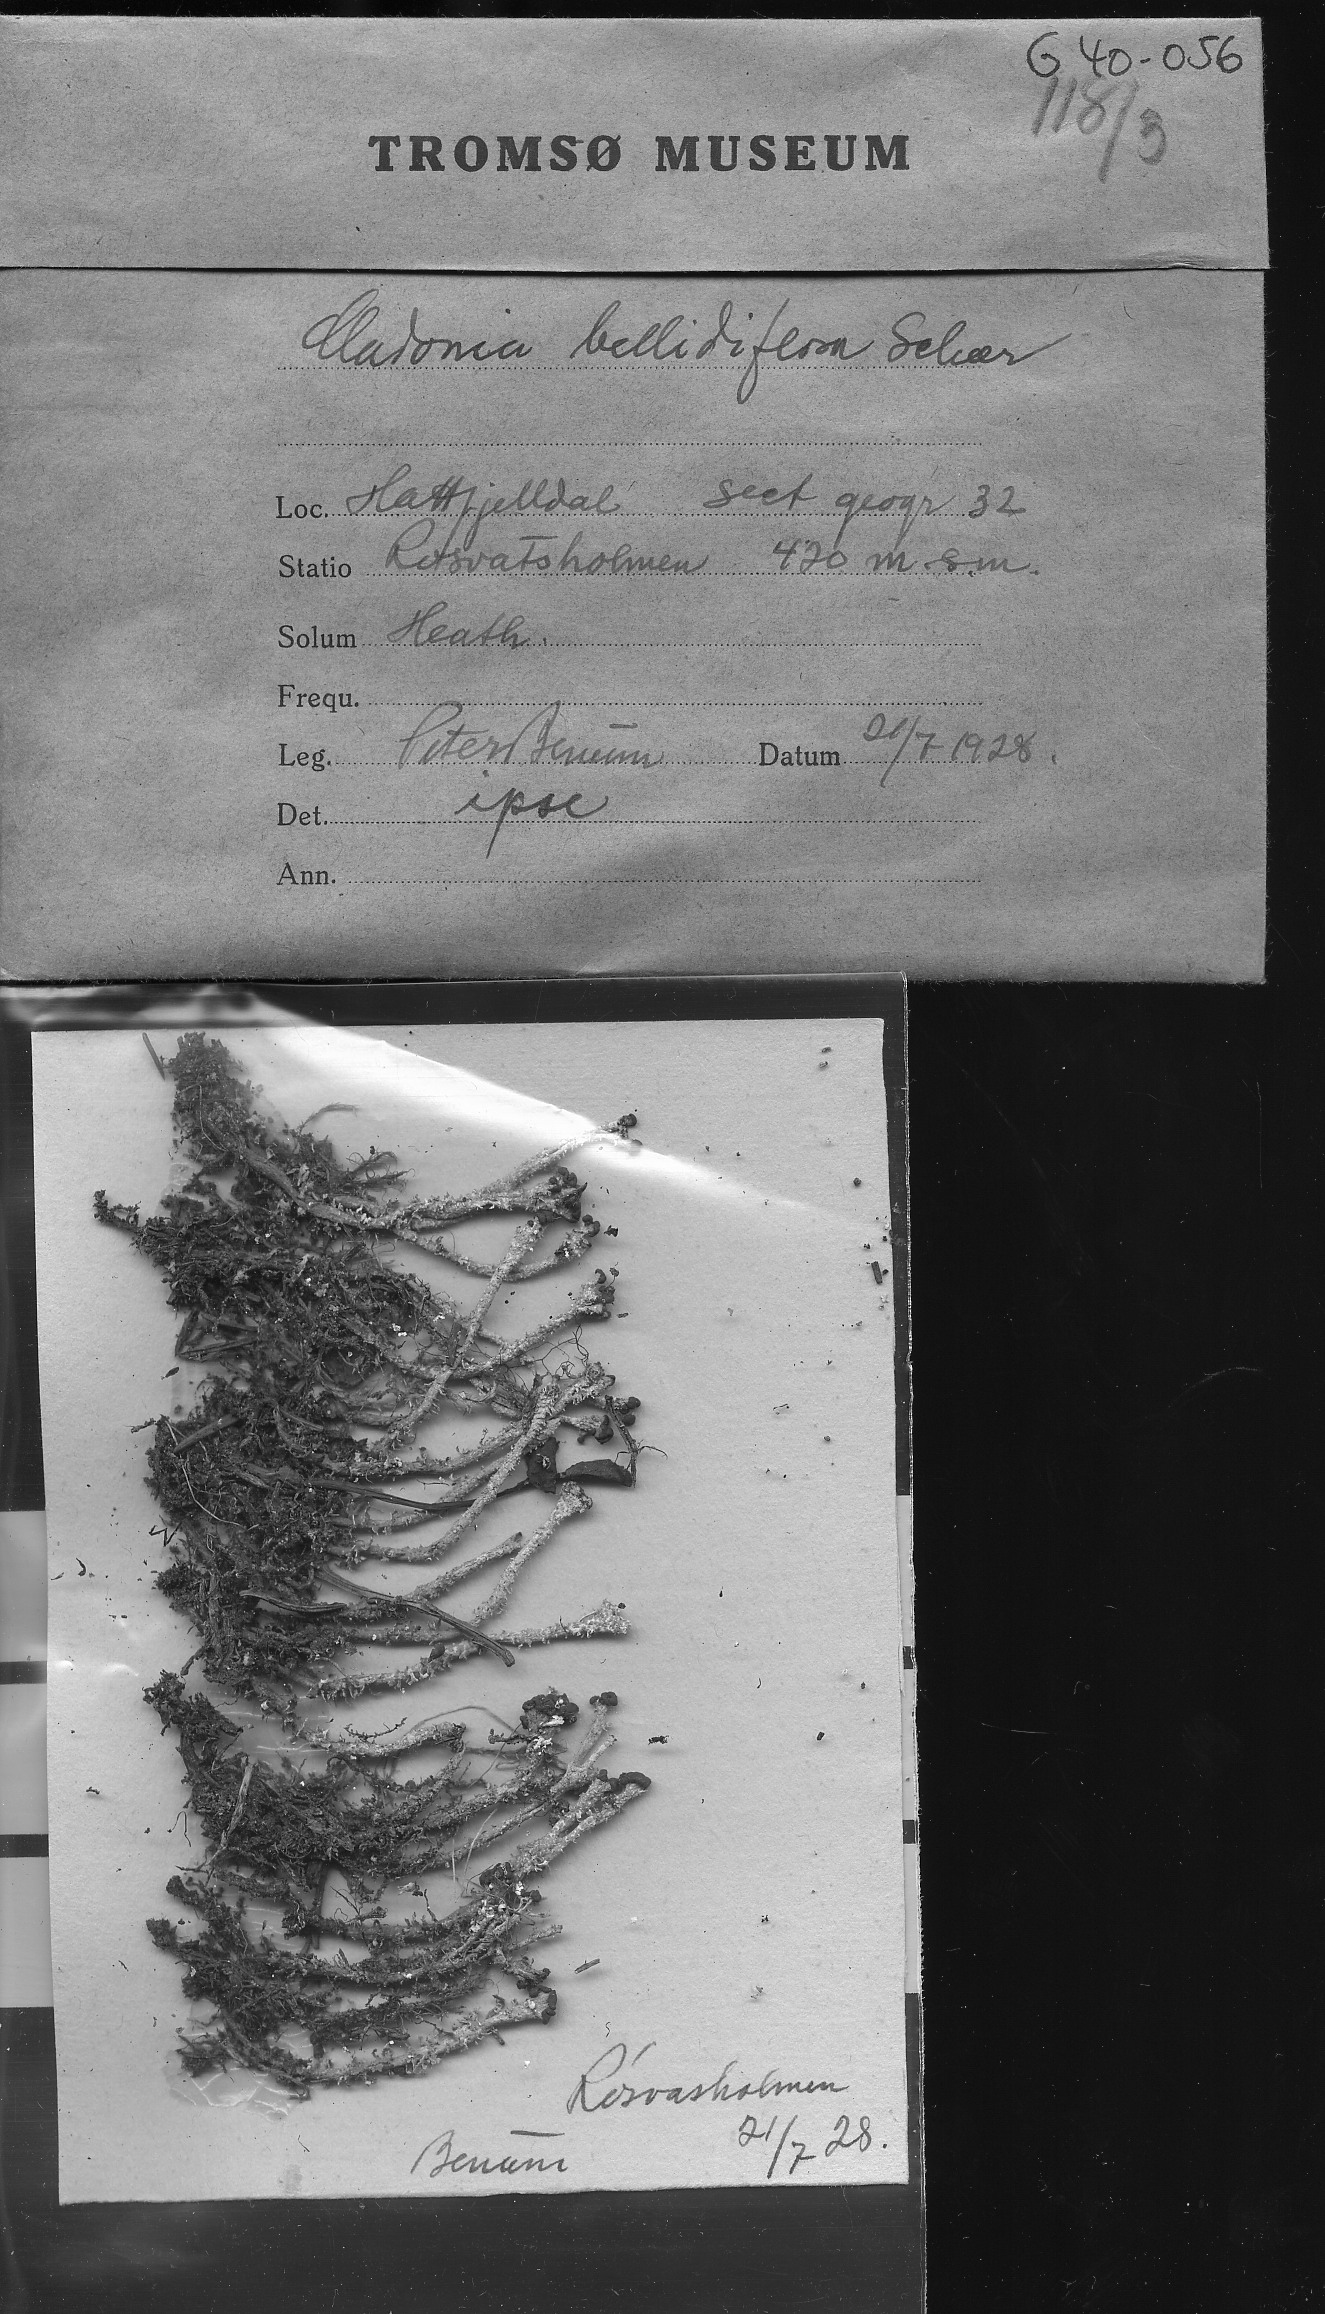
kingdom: Fungi
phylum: Ascomycota
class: Lecanoromycetes
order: Lecanorales
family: Cladoniaceae
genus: Cladonia
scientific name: Cladonia bellidiflora
